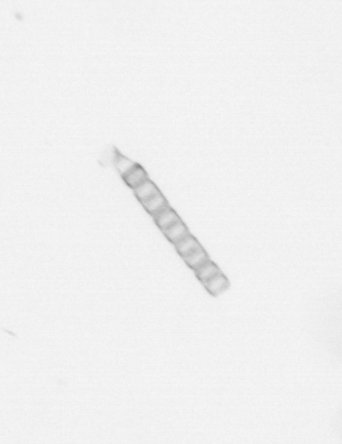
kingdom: Chromista
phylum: Ochrophyta
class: Bacillariophyceae
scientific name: Bacillariophyceae
